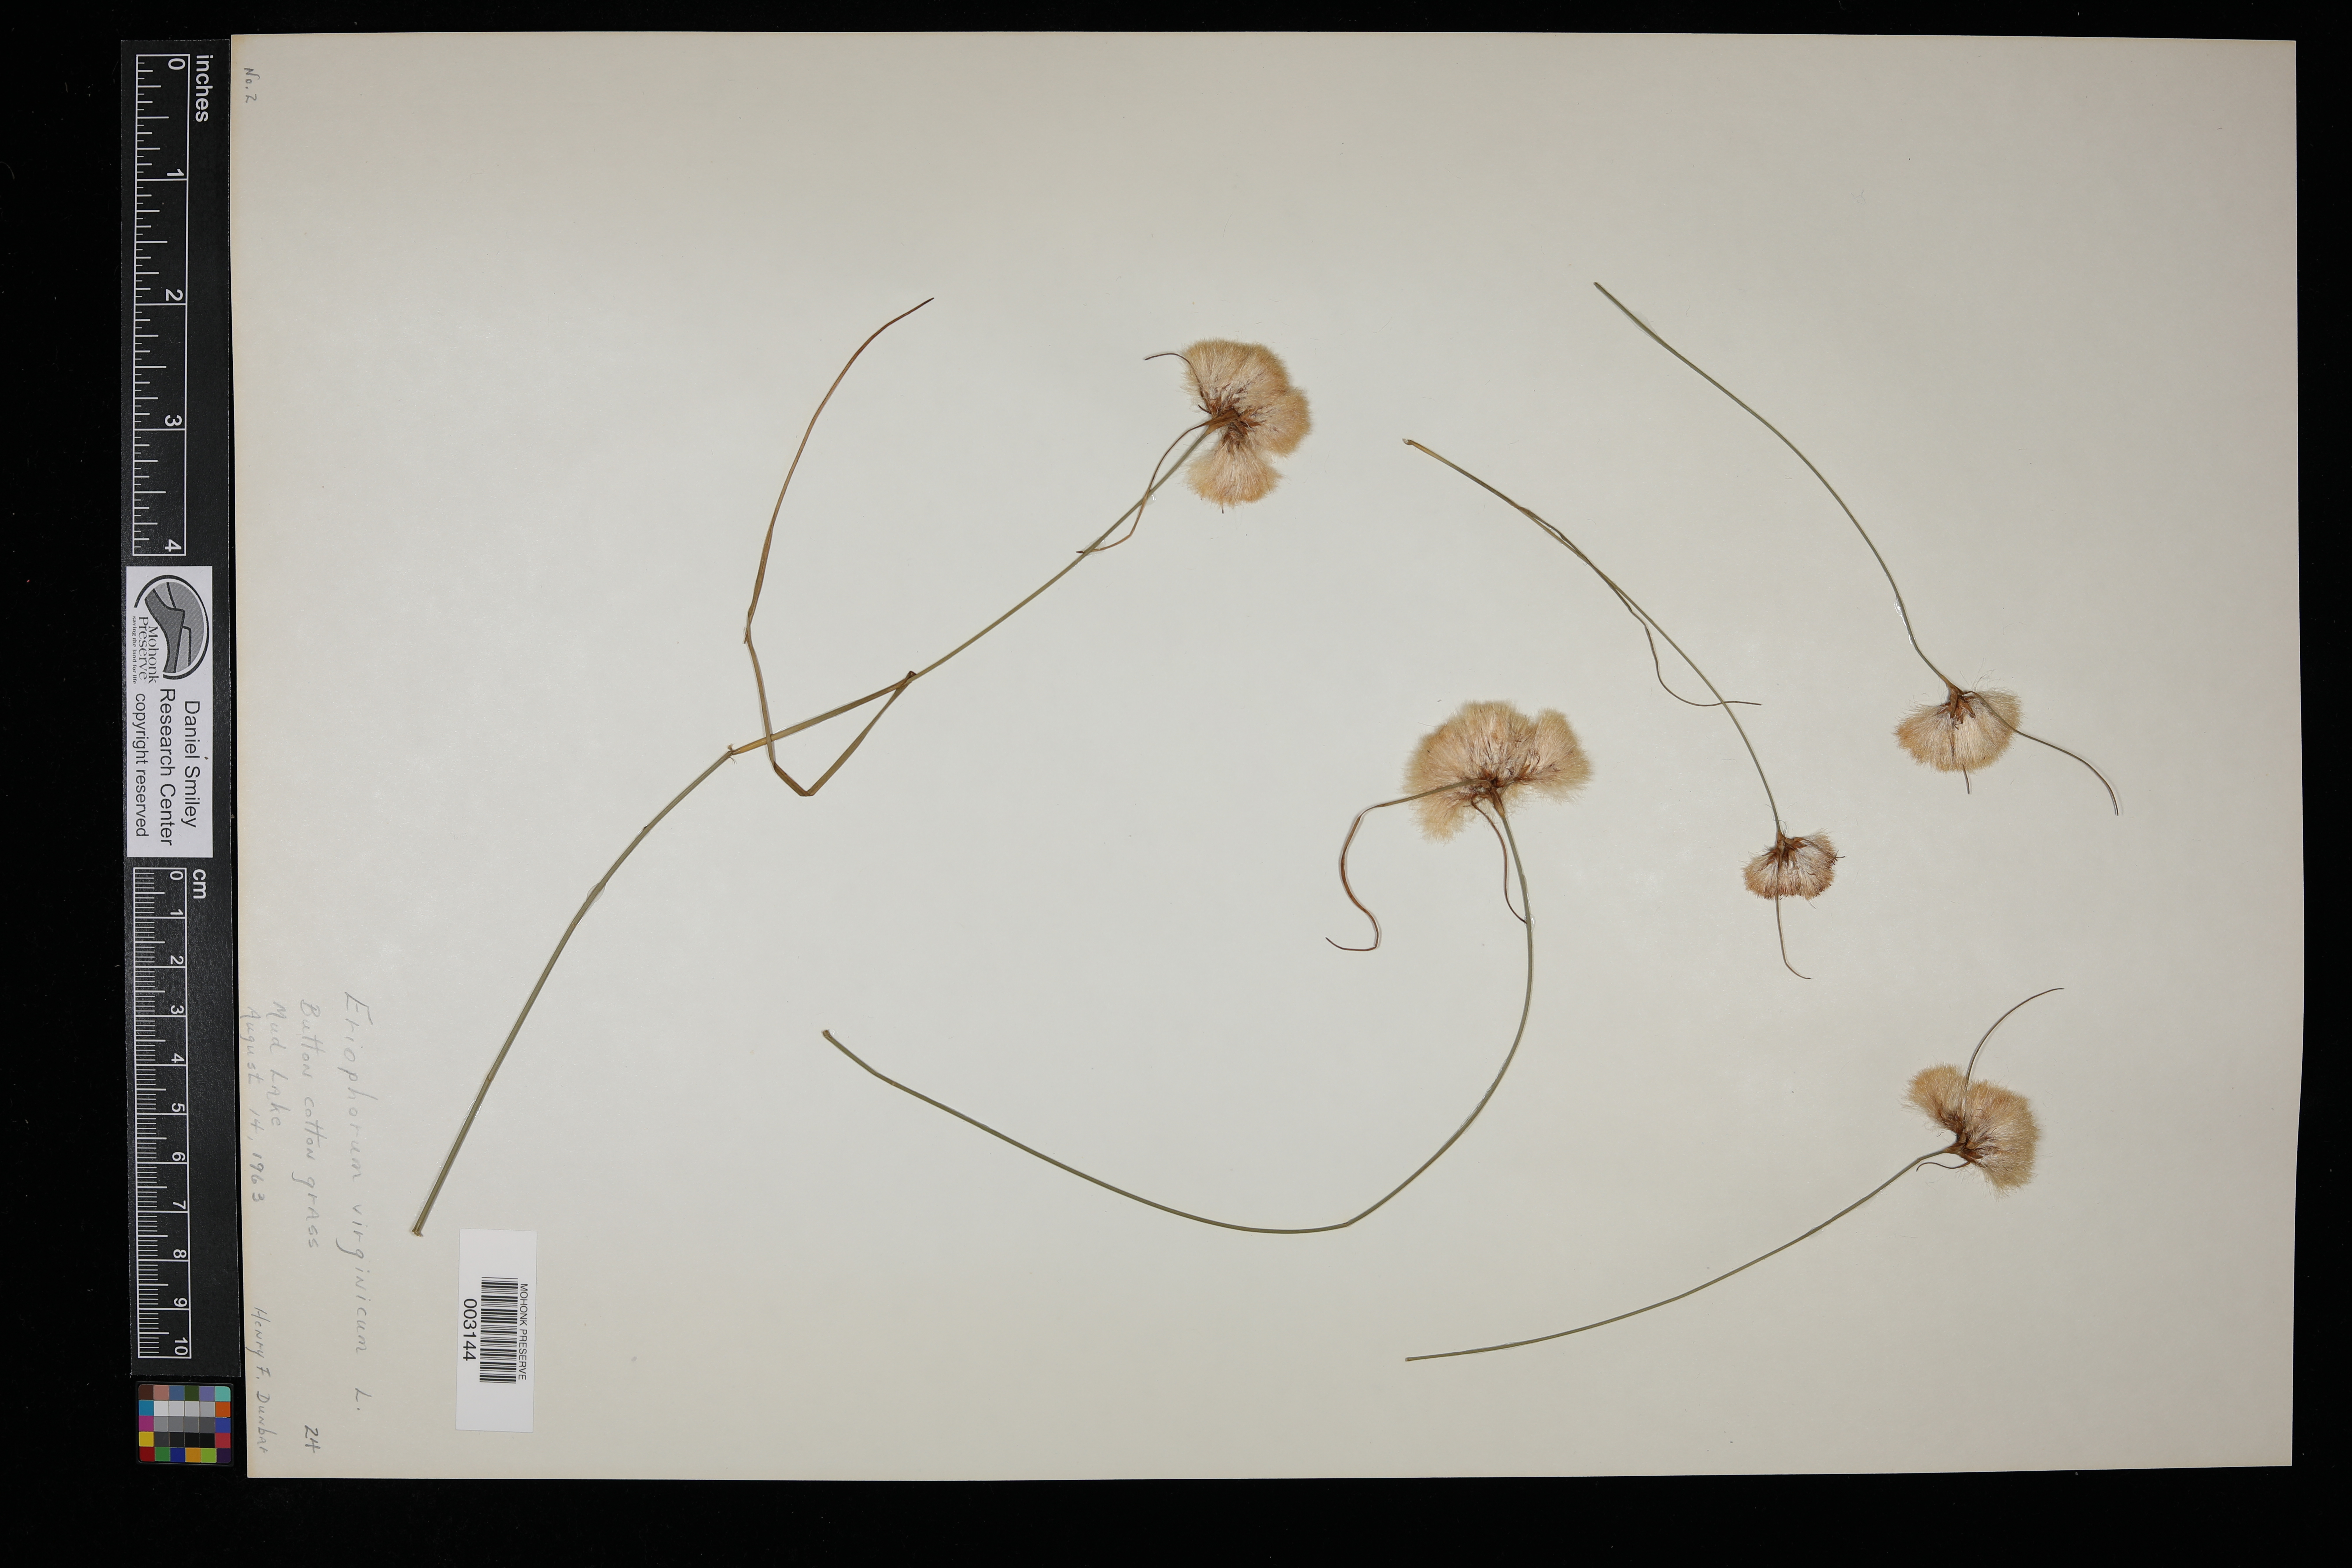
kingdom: Plantae
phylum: Tracheophyta
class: Liliopsida
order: Poales
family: Cyperaceae
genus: Eriophorum
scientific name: Eriophorum virginicum
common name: Tawny cottongrass
